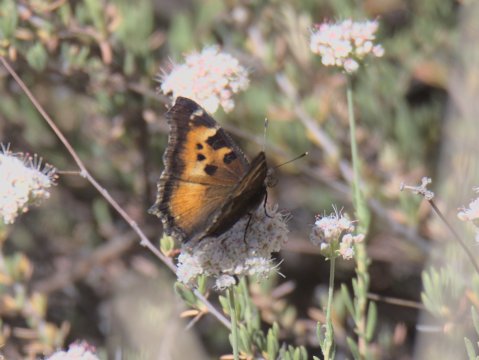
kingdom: Animalia
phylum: Arthropoda
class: Insecta
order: Lepidoptera
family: Nymphalidae
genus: Nymphalis
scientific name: Nymphalis californica
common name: California Tortoiseshell
